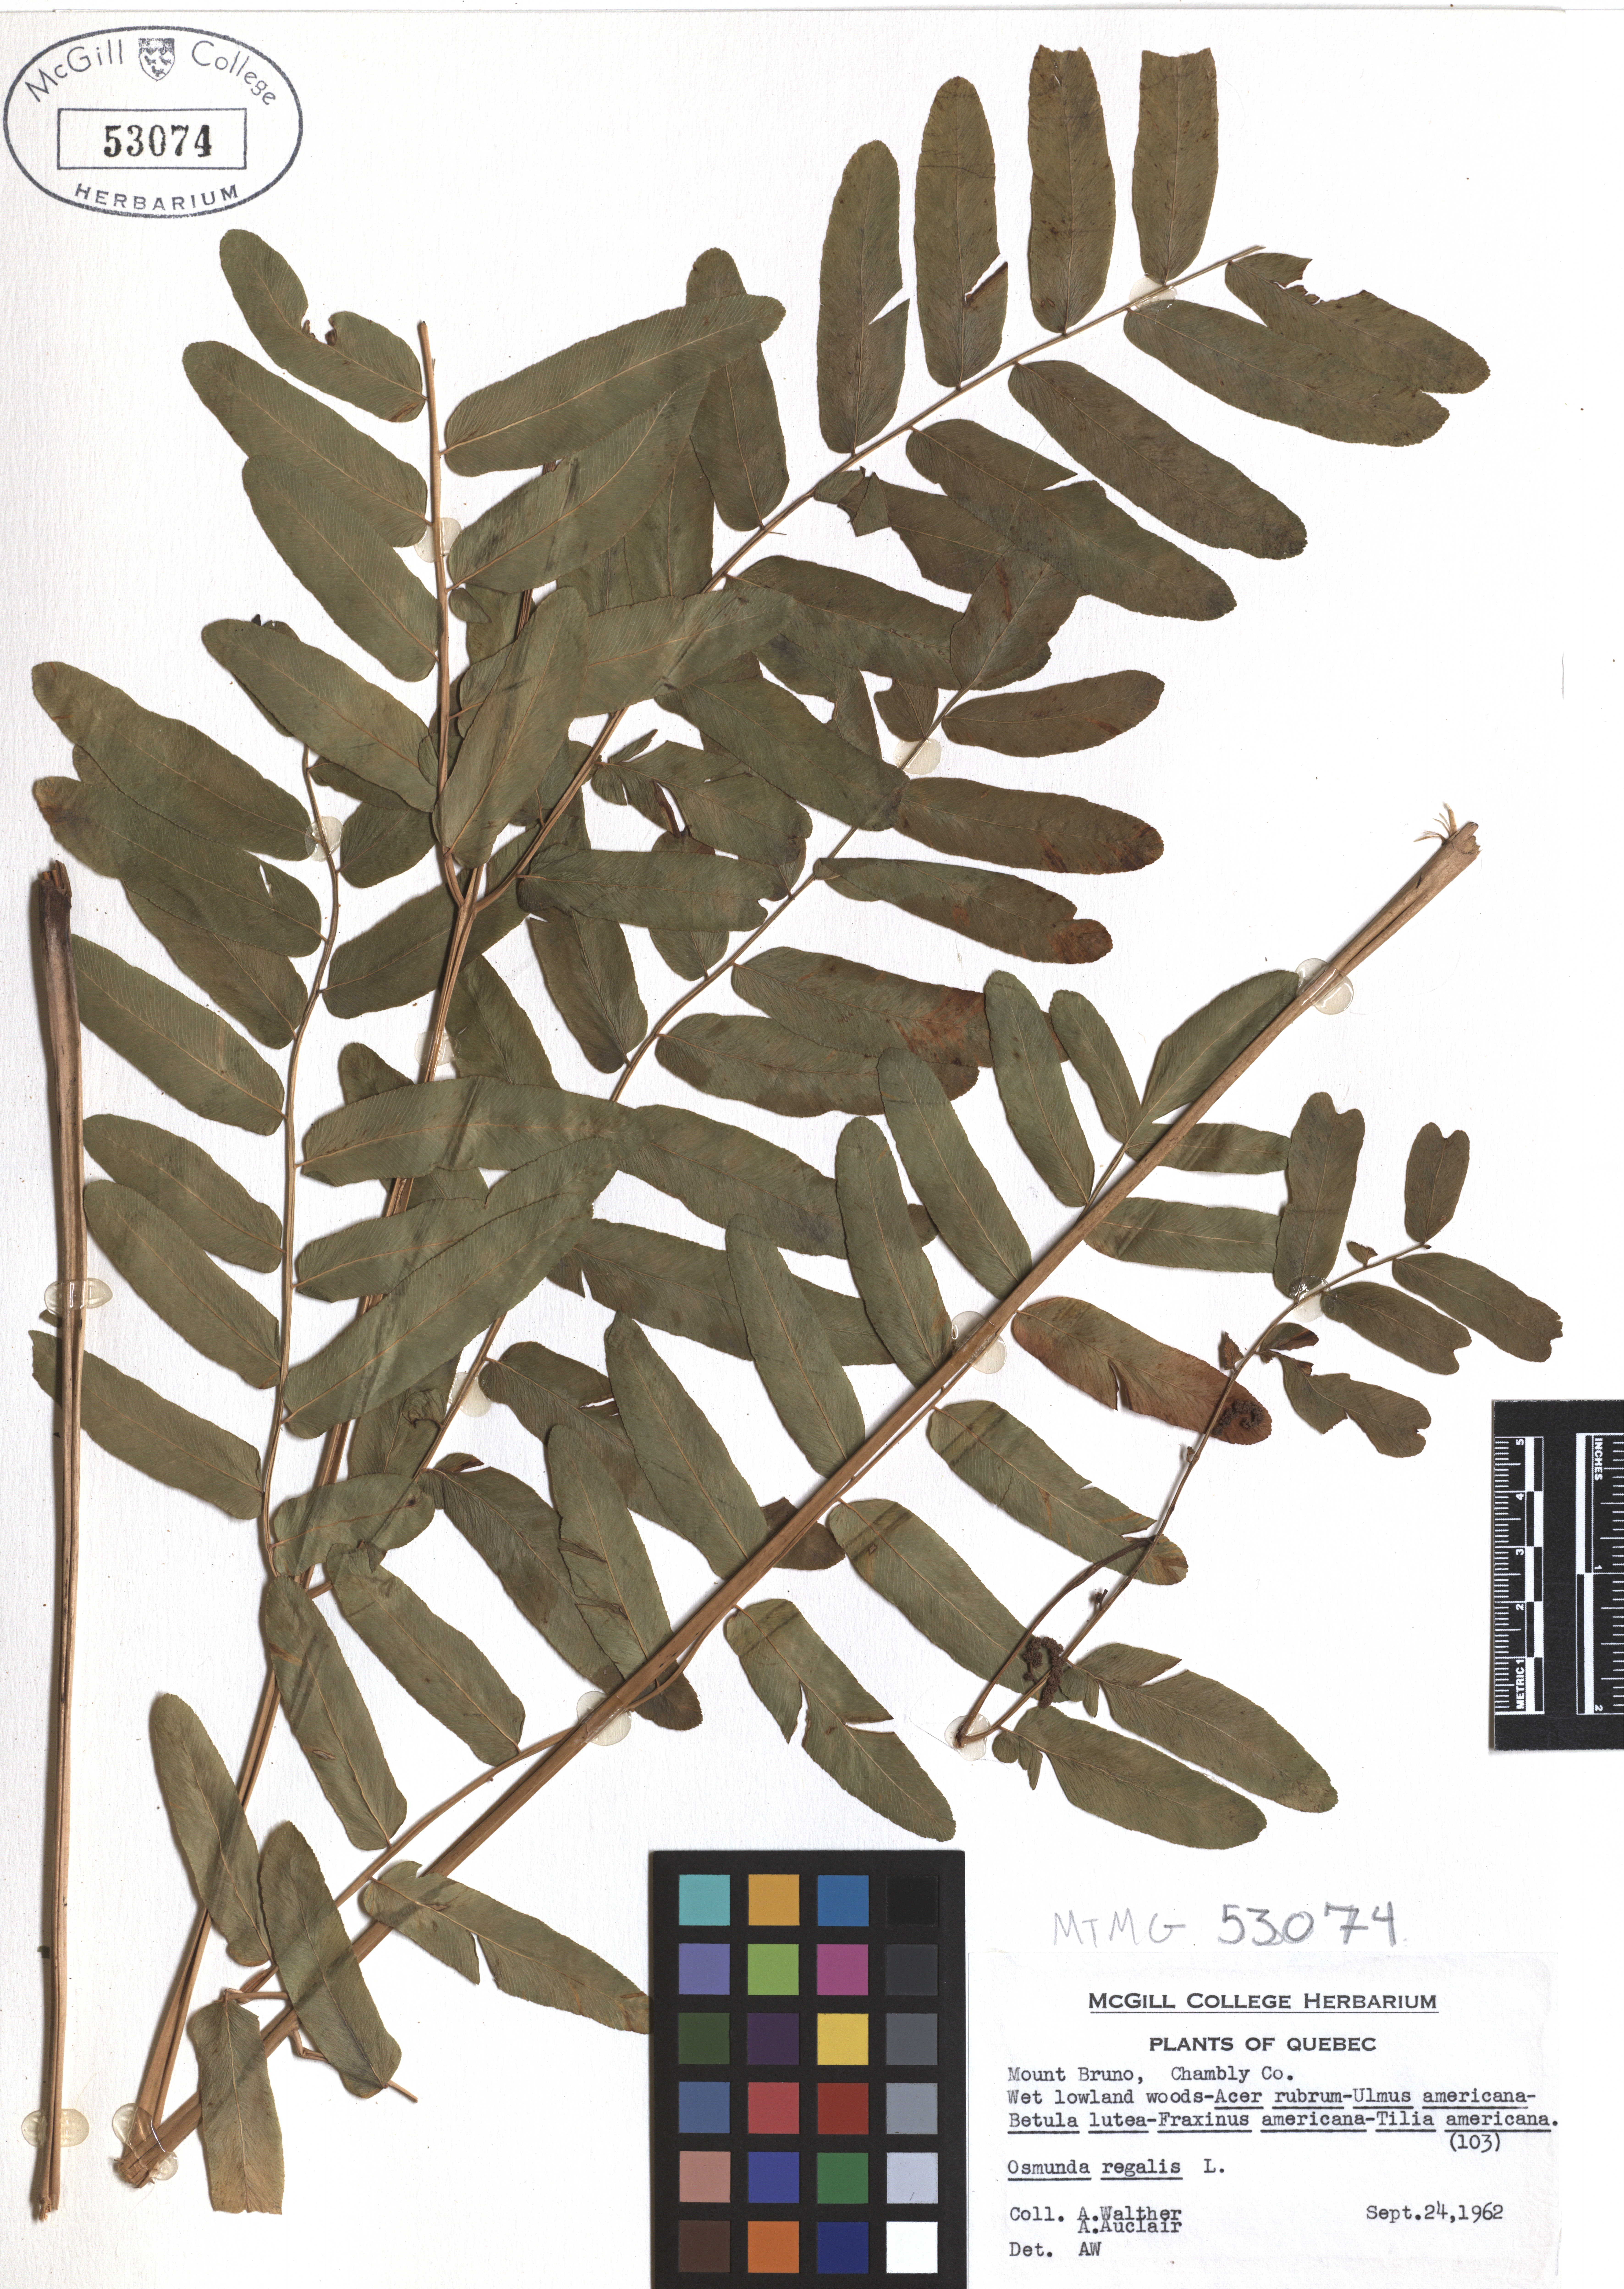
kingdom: Plantae
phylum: Tracheophyta
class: Polypodiopsida
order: Osmundales
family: Osmundaceae
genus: Osmunda
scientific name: Osmunda regalis
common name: Royal fern
